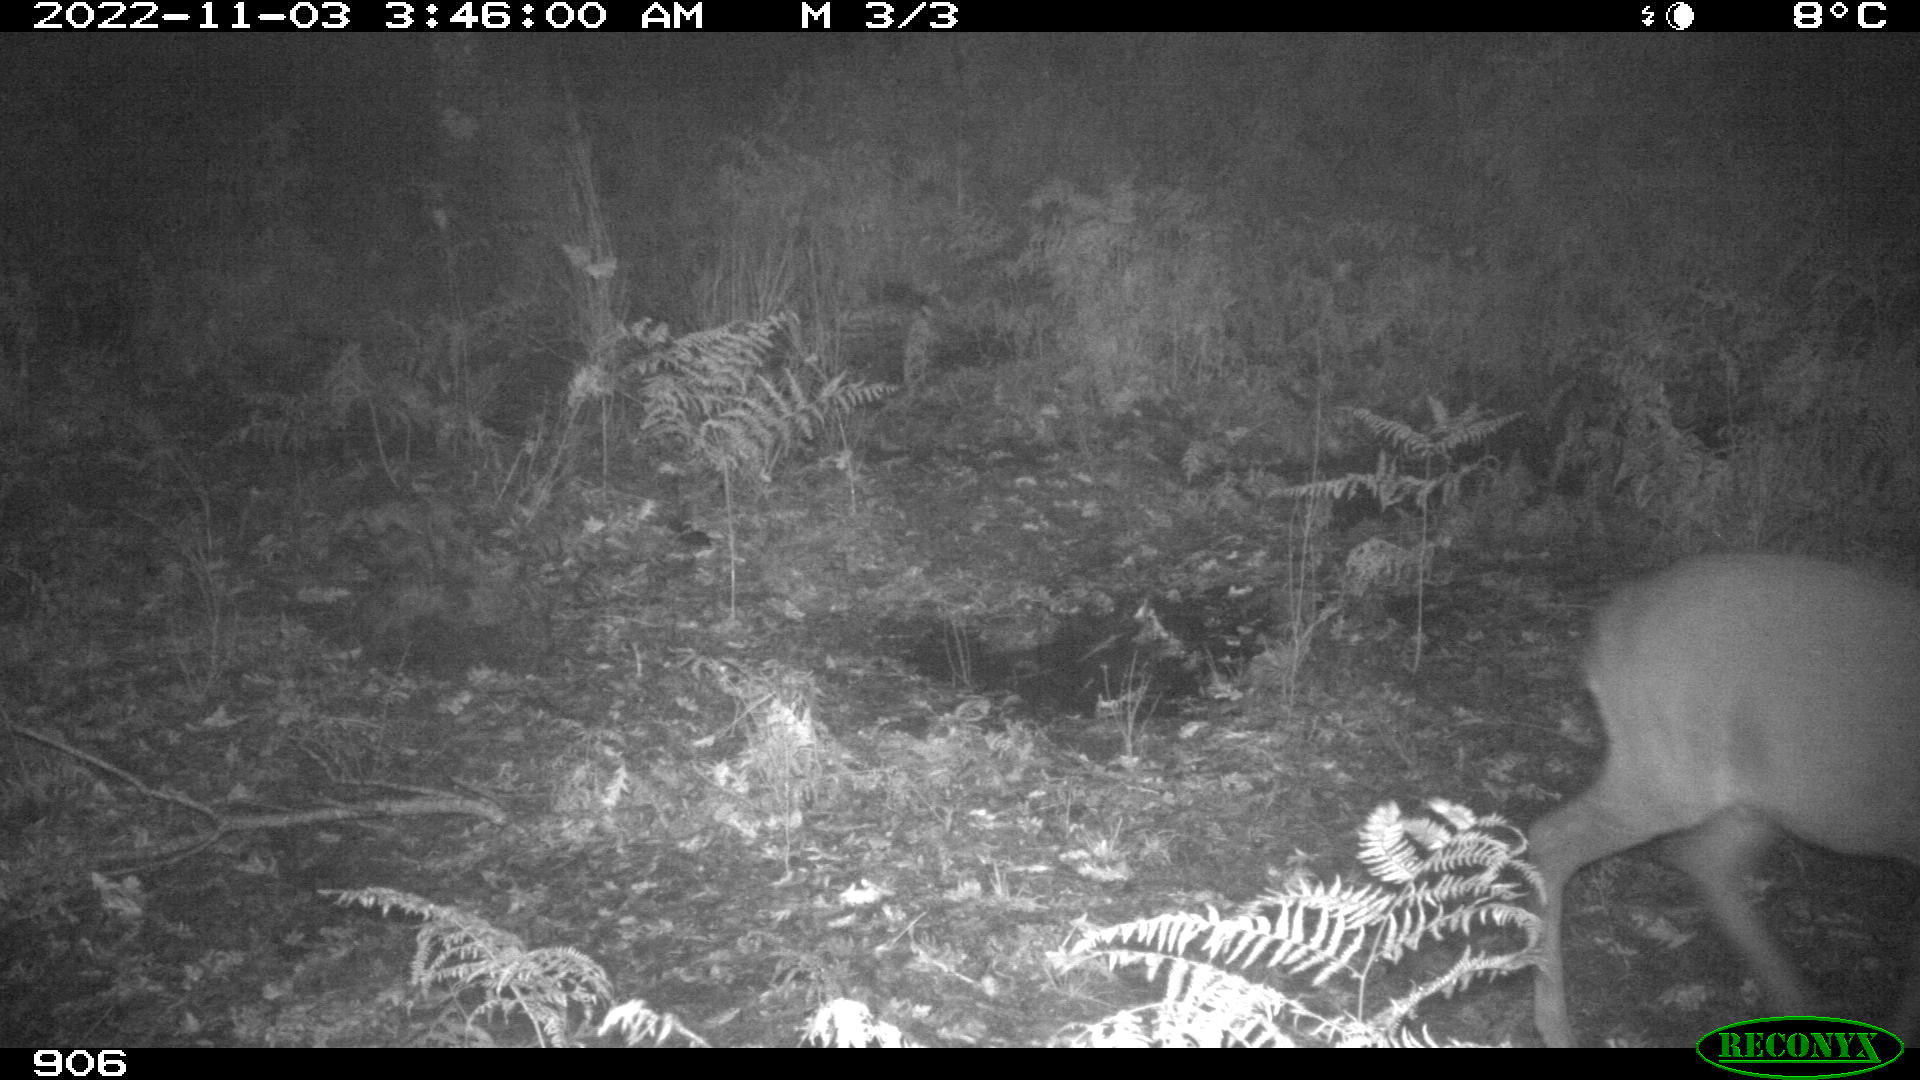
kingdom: Animalia
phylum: Chordata
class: Mammalia
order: Artiodactyla
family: Cervidae
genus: Capreolus
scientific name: Capreolus capreolus
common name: Western roe deer
